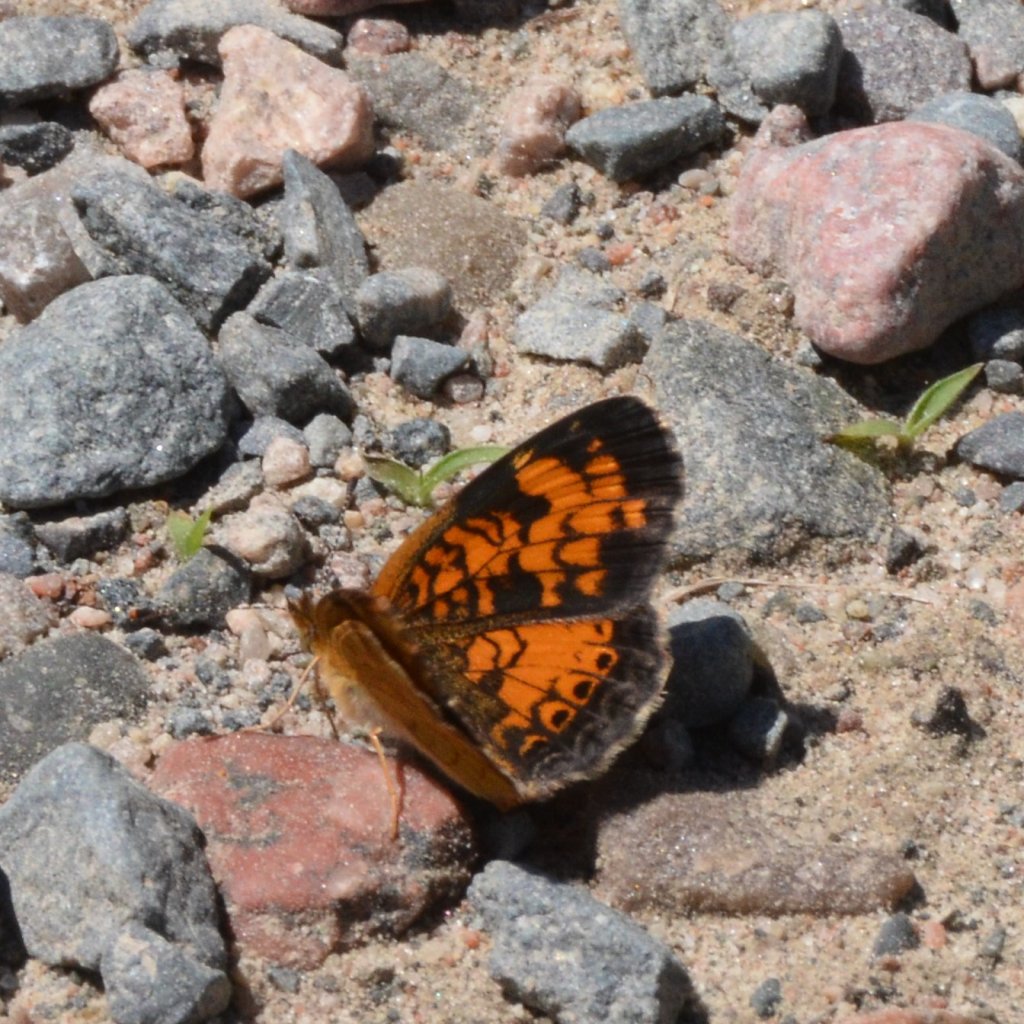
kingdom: Animalia
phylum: Arthropoda
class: Insecta
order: Lepidoptera
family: Nymphalidae
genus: Phyciodes
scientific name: Phyciodes tharos
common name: Northern Crescent
